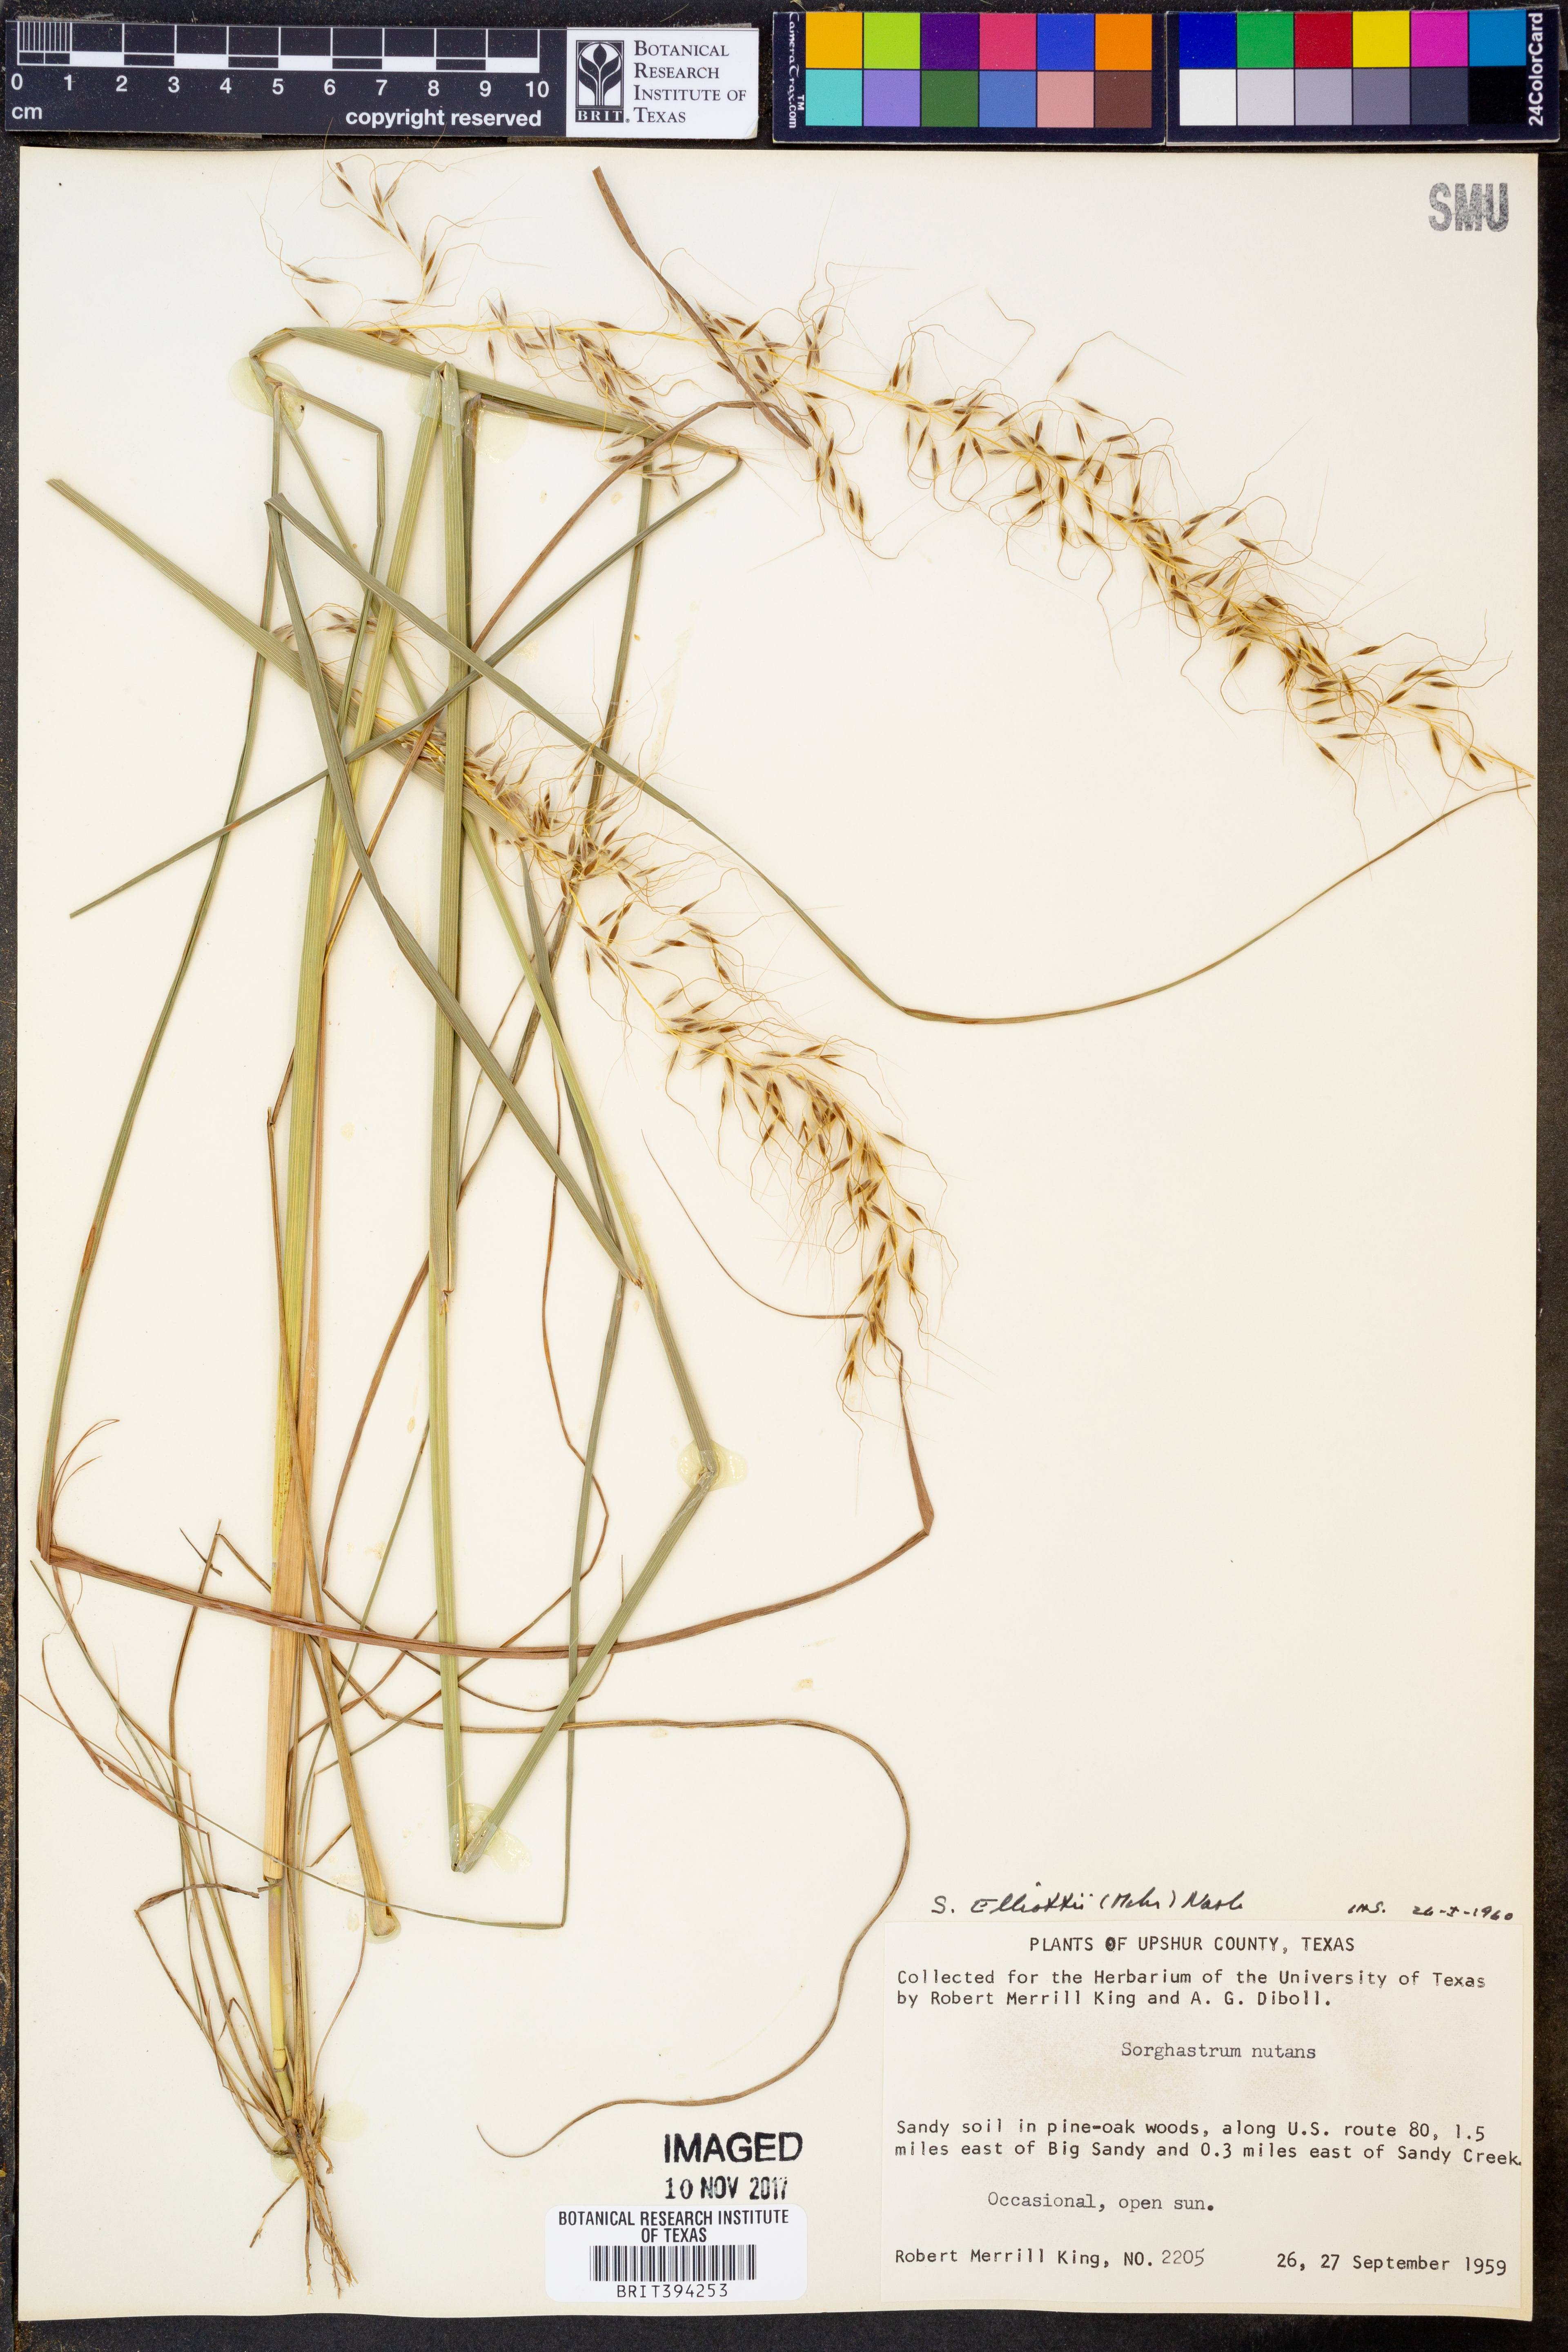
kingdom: Plantae
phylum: Tracheophyta
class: Liliopsida
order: Poales
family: Poaceae
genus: Sorghastrum
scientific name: Sorghastrum elliottii
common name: Slender indian grass
